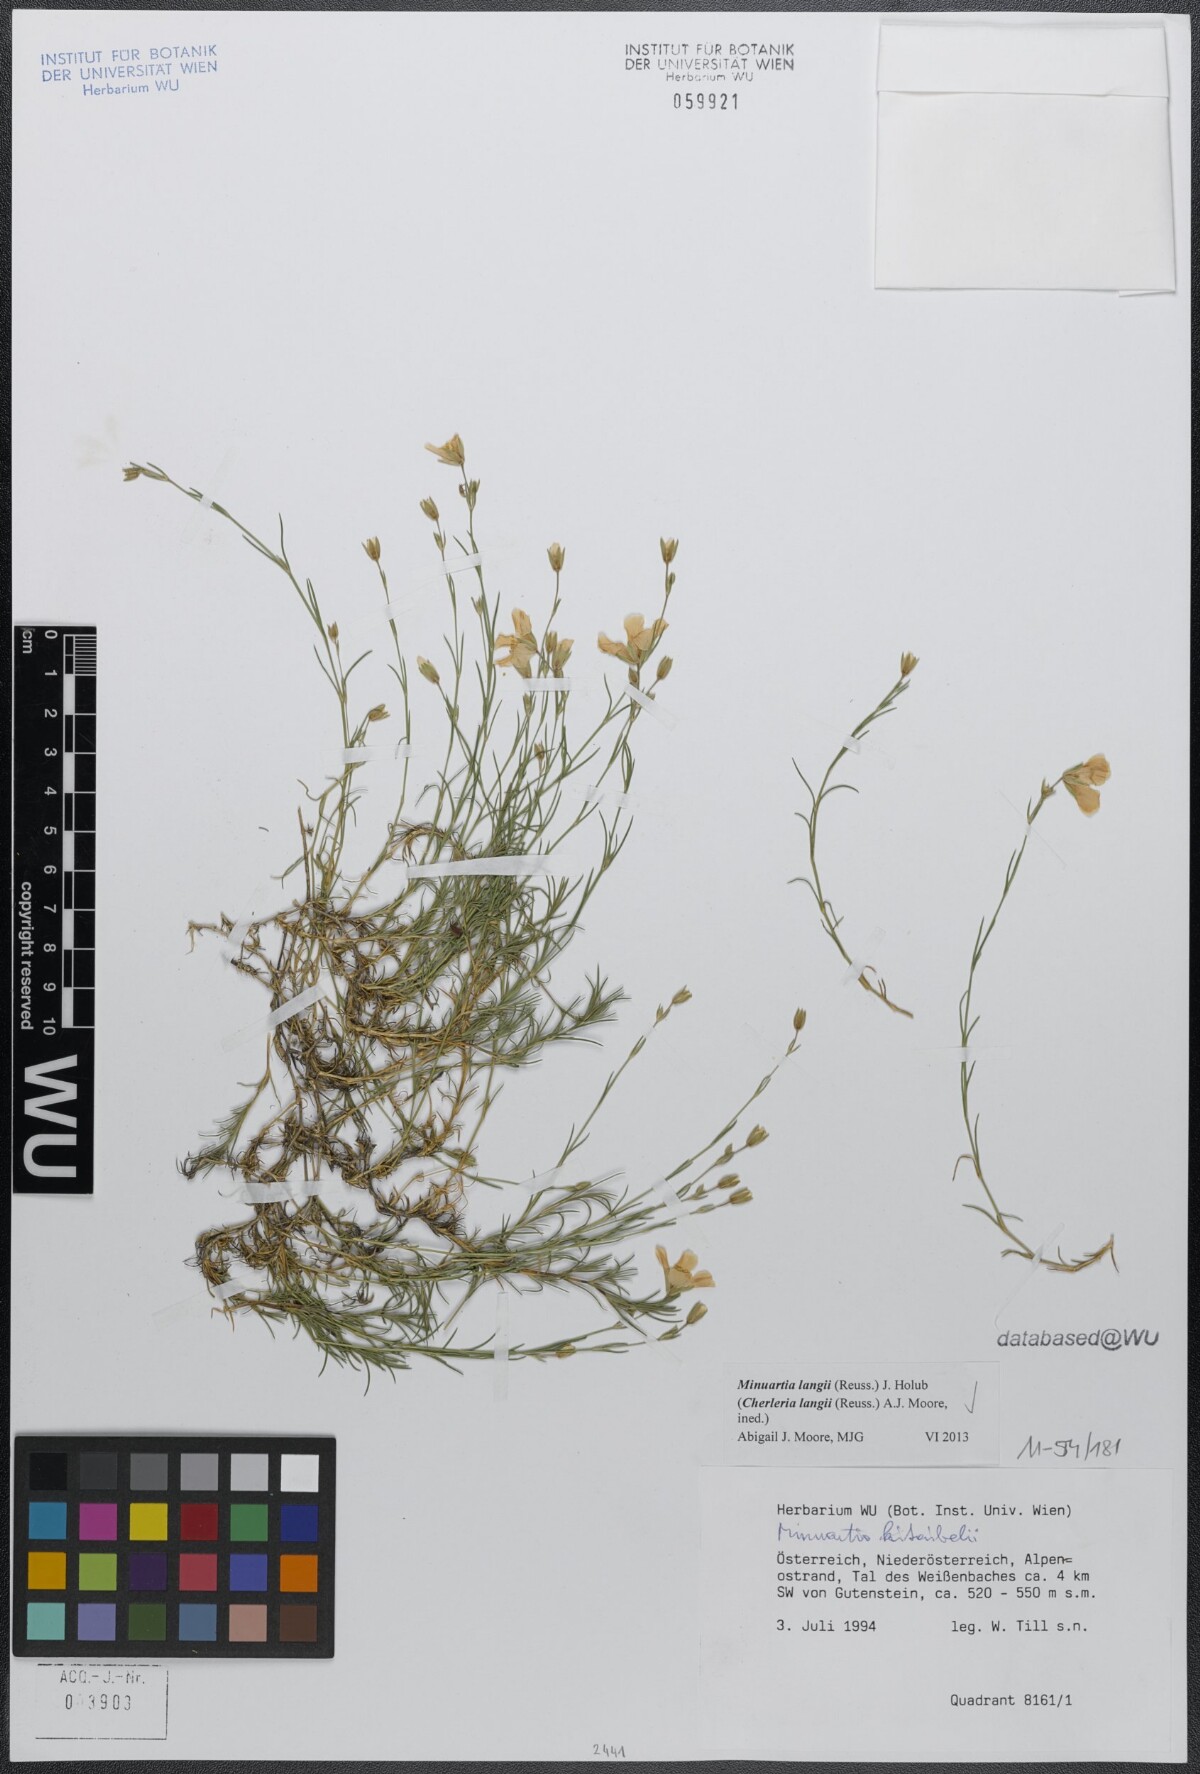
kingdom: Plantae
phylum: Tracheophyta
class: Magnoliopsida
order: Caryophyllales
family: Caryophyllaceae
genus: Cherleria
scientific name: Cherleria langii
